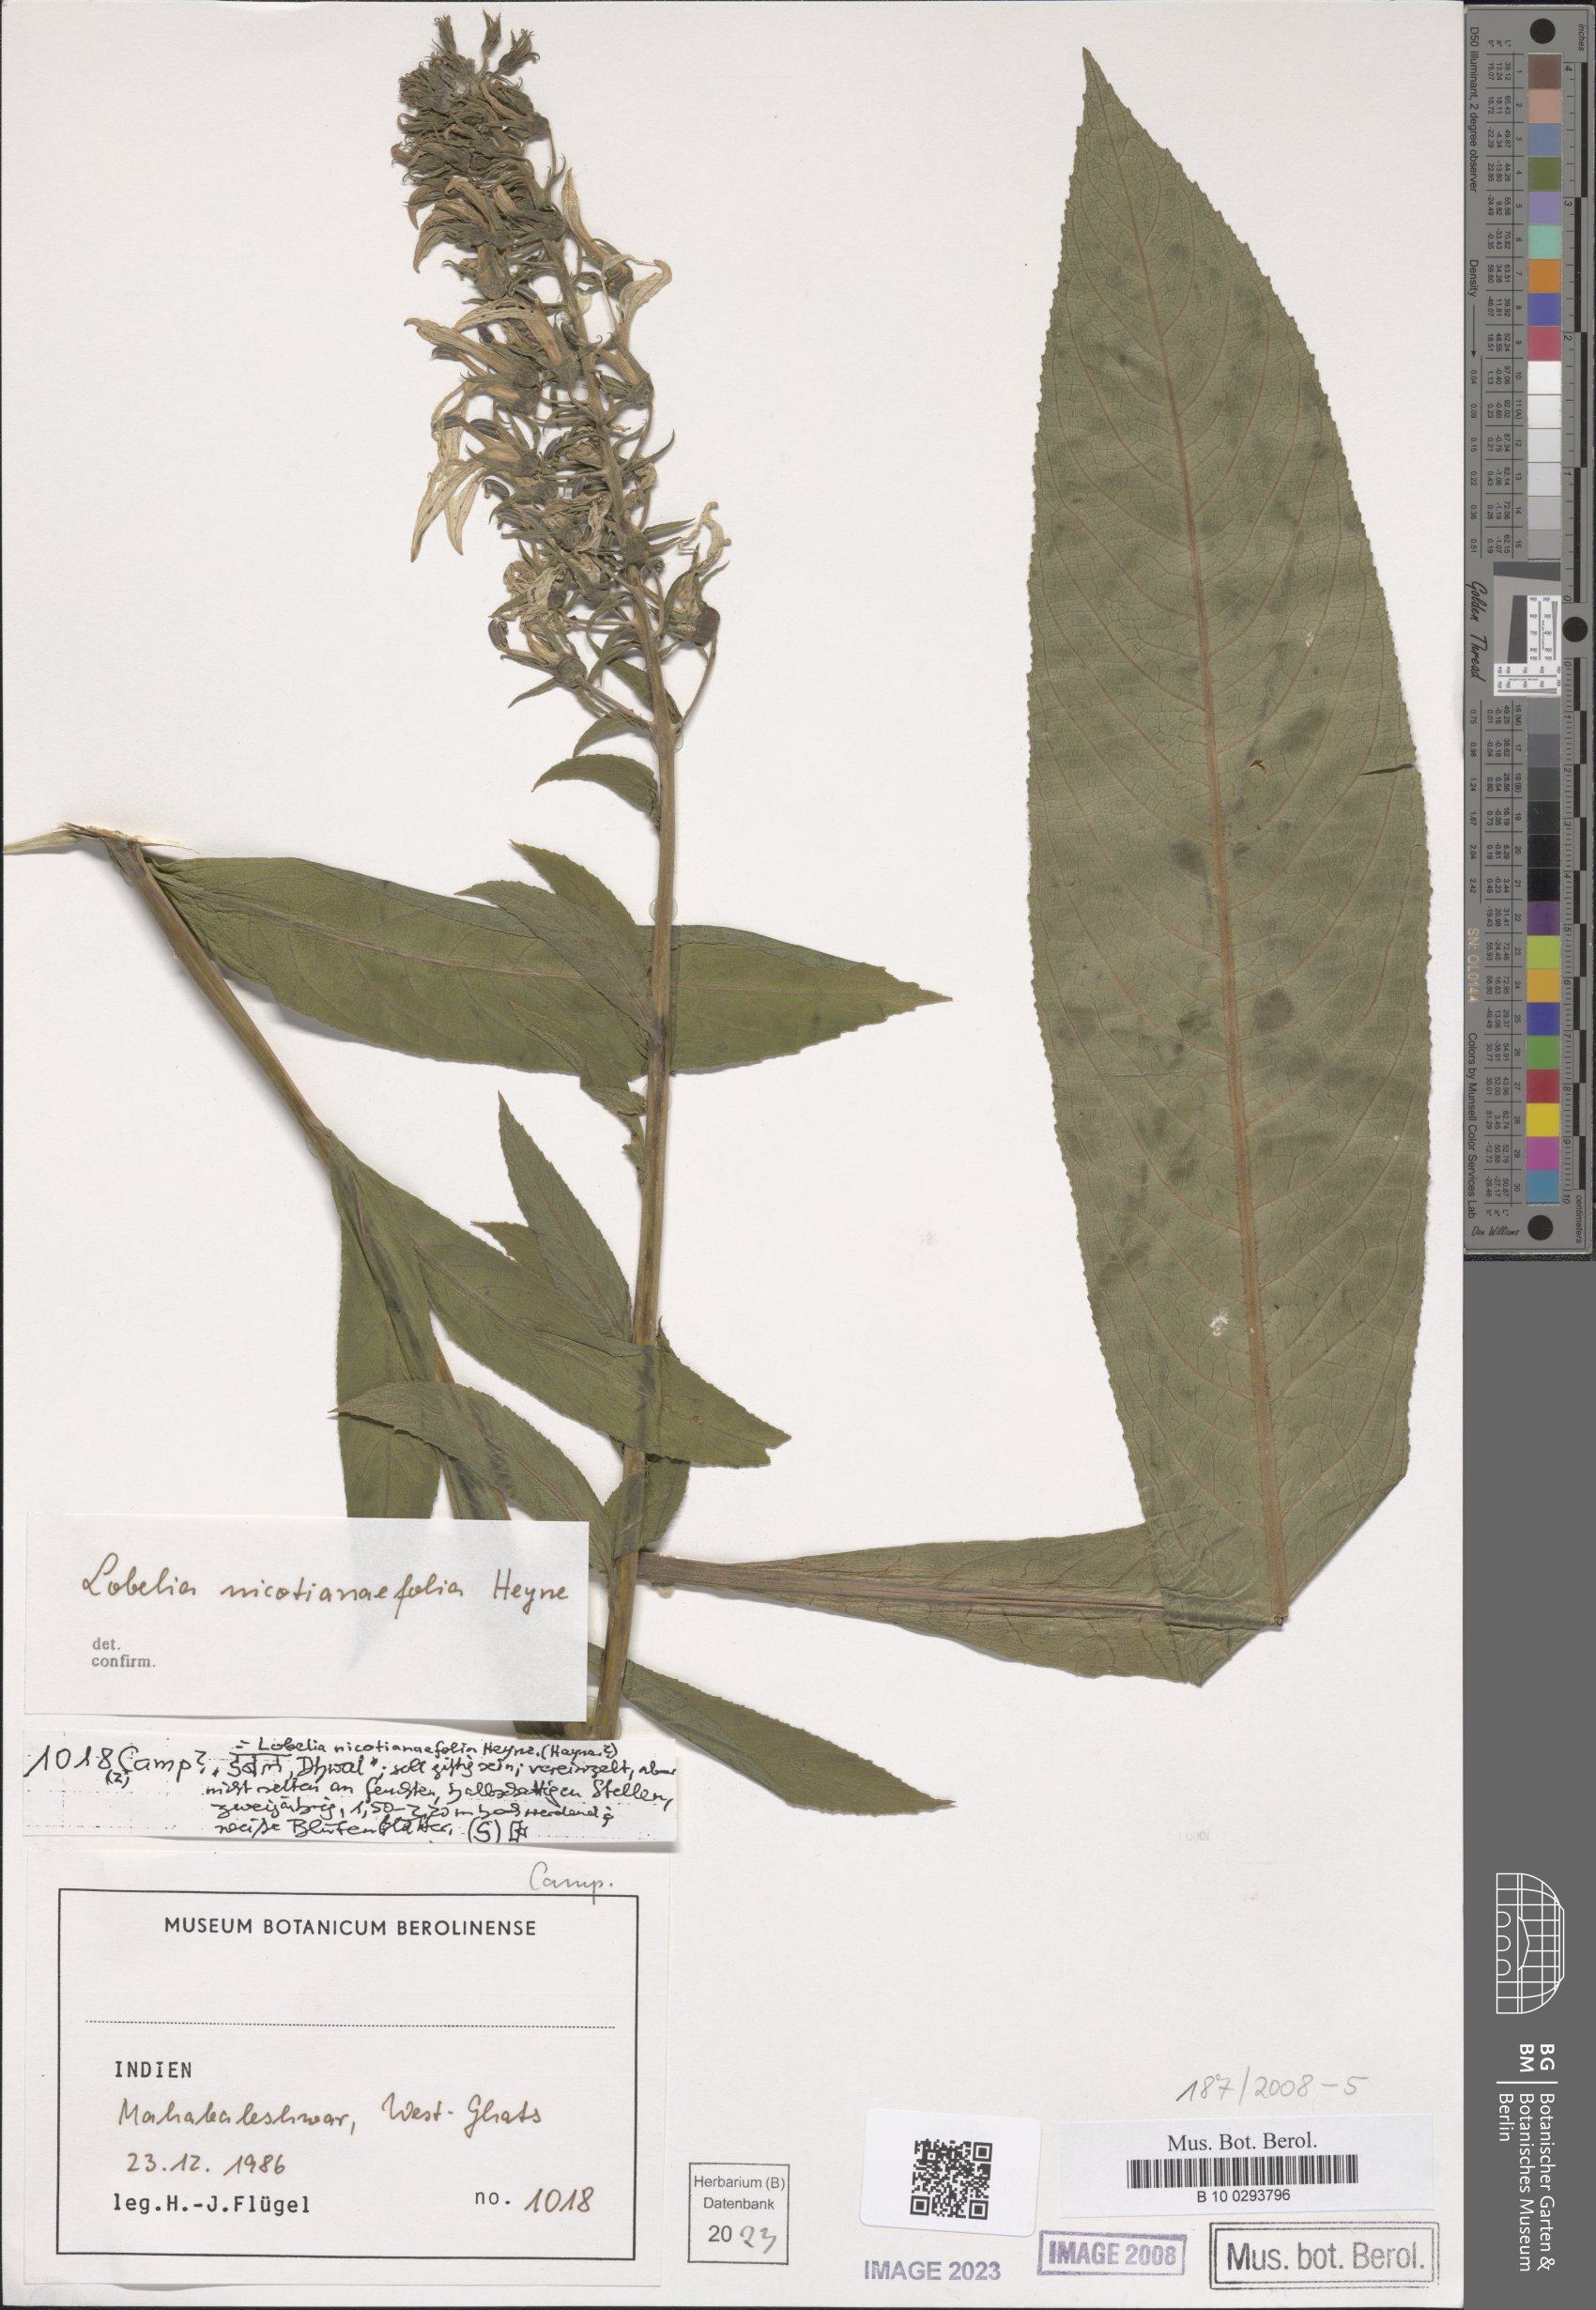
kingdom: Plantae
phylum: Tracheophyta
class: Magnoliopsida
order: Asterales
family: Campanulaceae
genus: Lobelia
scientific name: Lobelia nicotianifolia
